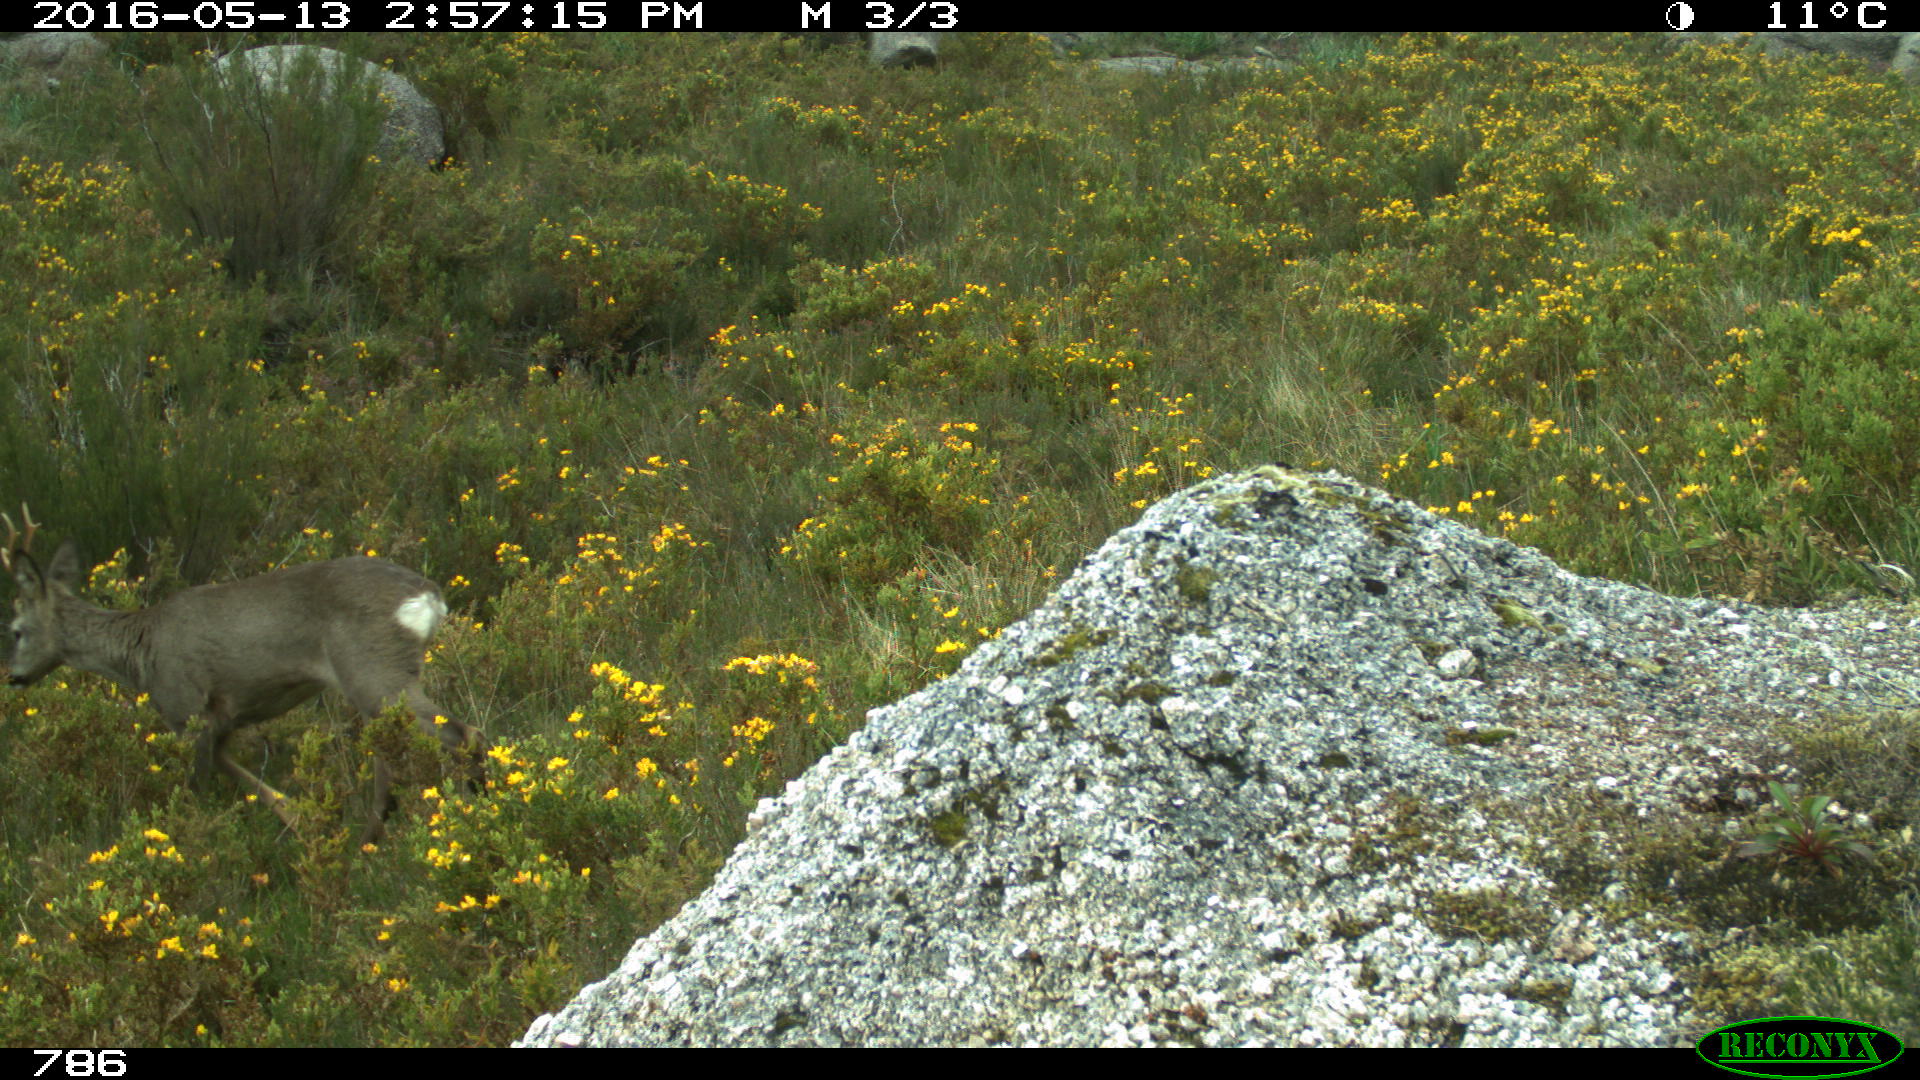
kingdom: Animalia
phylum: Chordata
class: Mammalia
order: Artiodactyla
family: Cervidae
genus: Capreolus
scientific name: Capreolus capreolus
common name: Western roe deer
